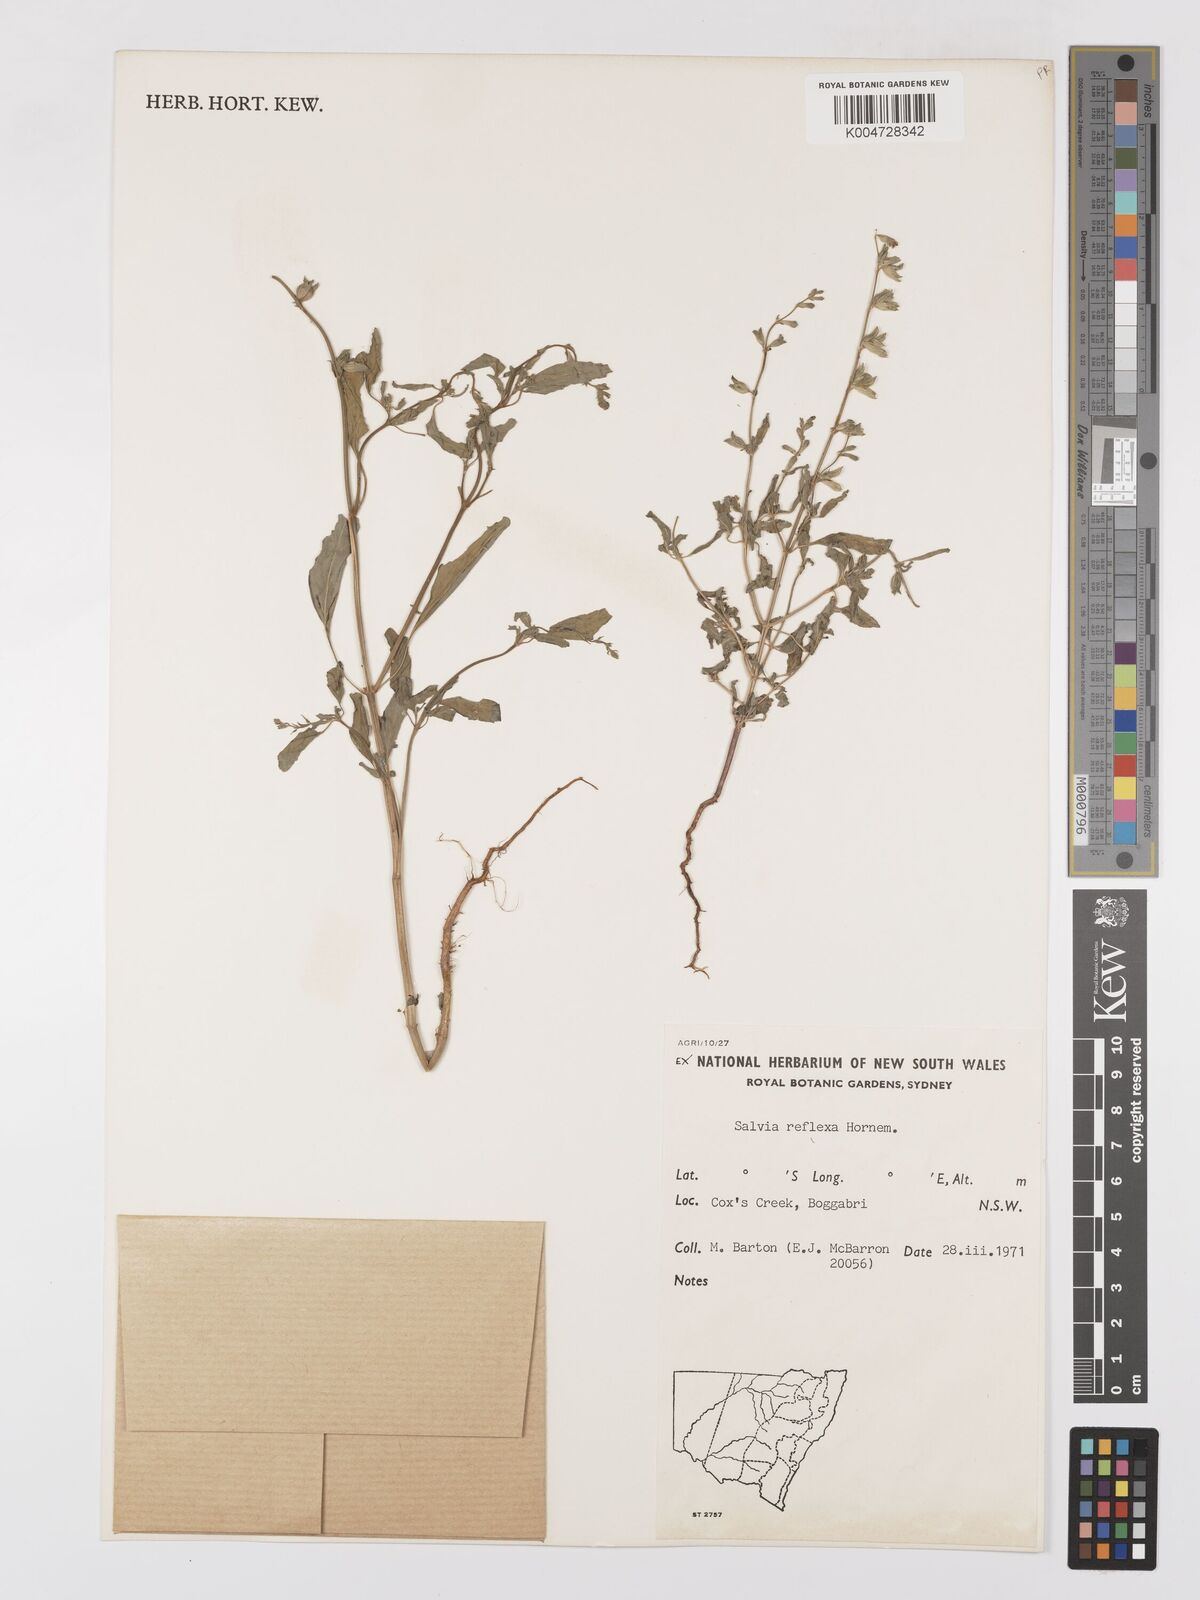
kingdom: Plantae
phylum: Tracheophyta
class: Magnoliopsida
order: Lamiales
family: Lamiaceae
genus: Salvia
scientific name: Salvia reflexa
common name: Mintweed
